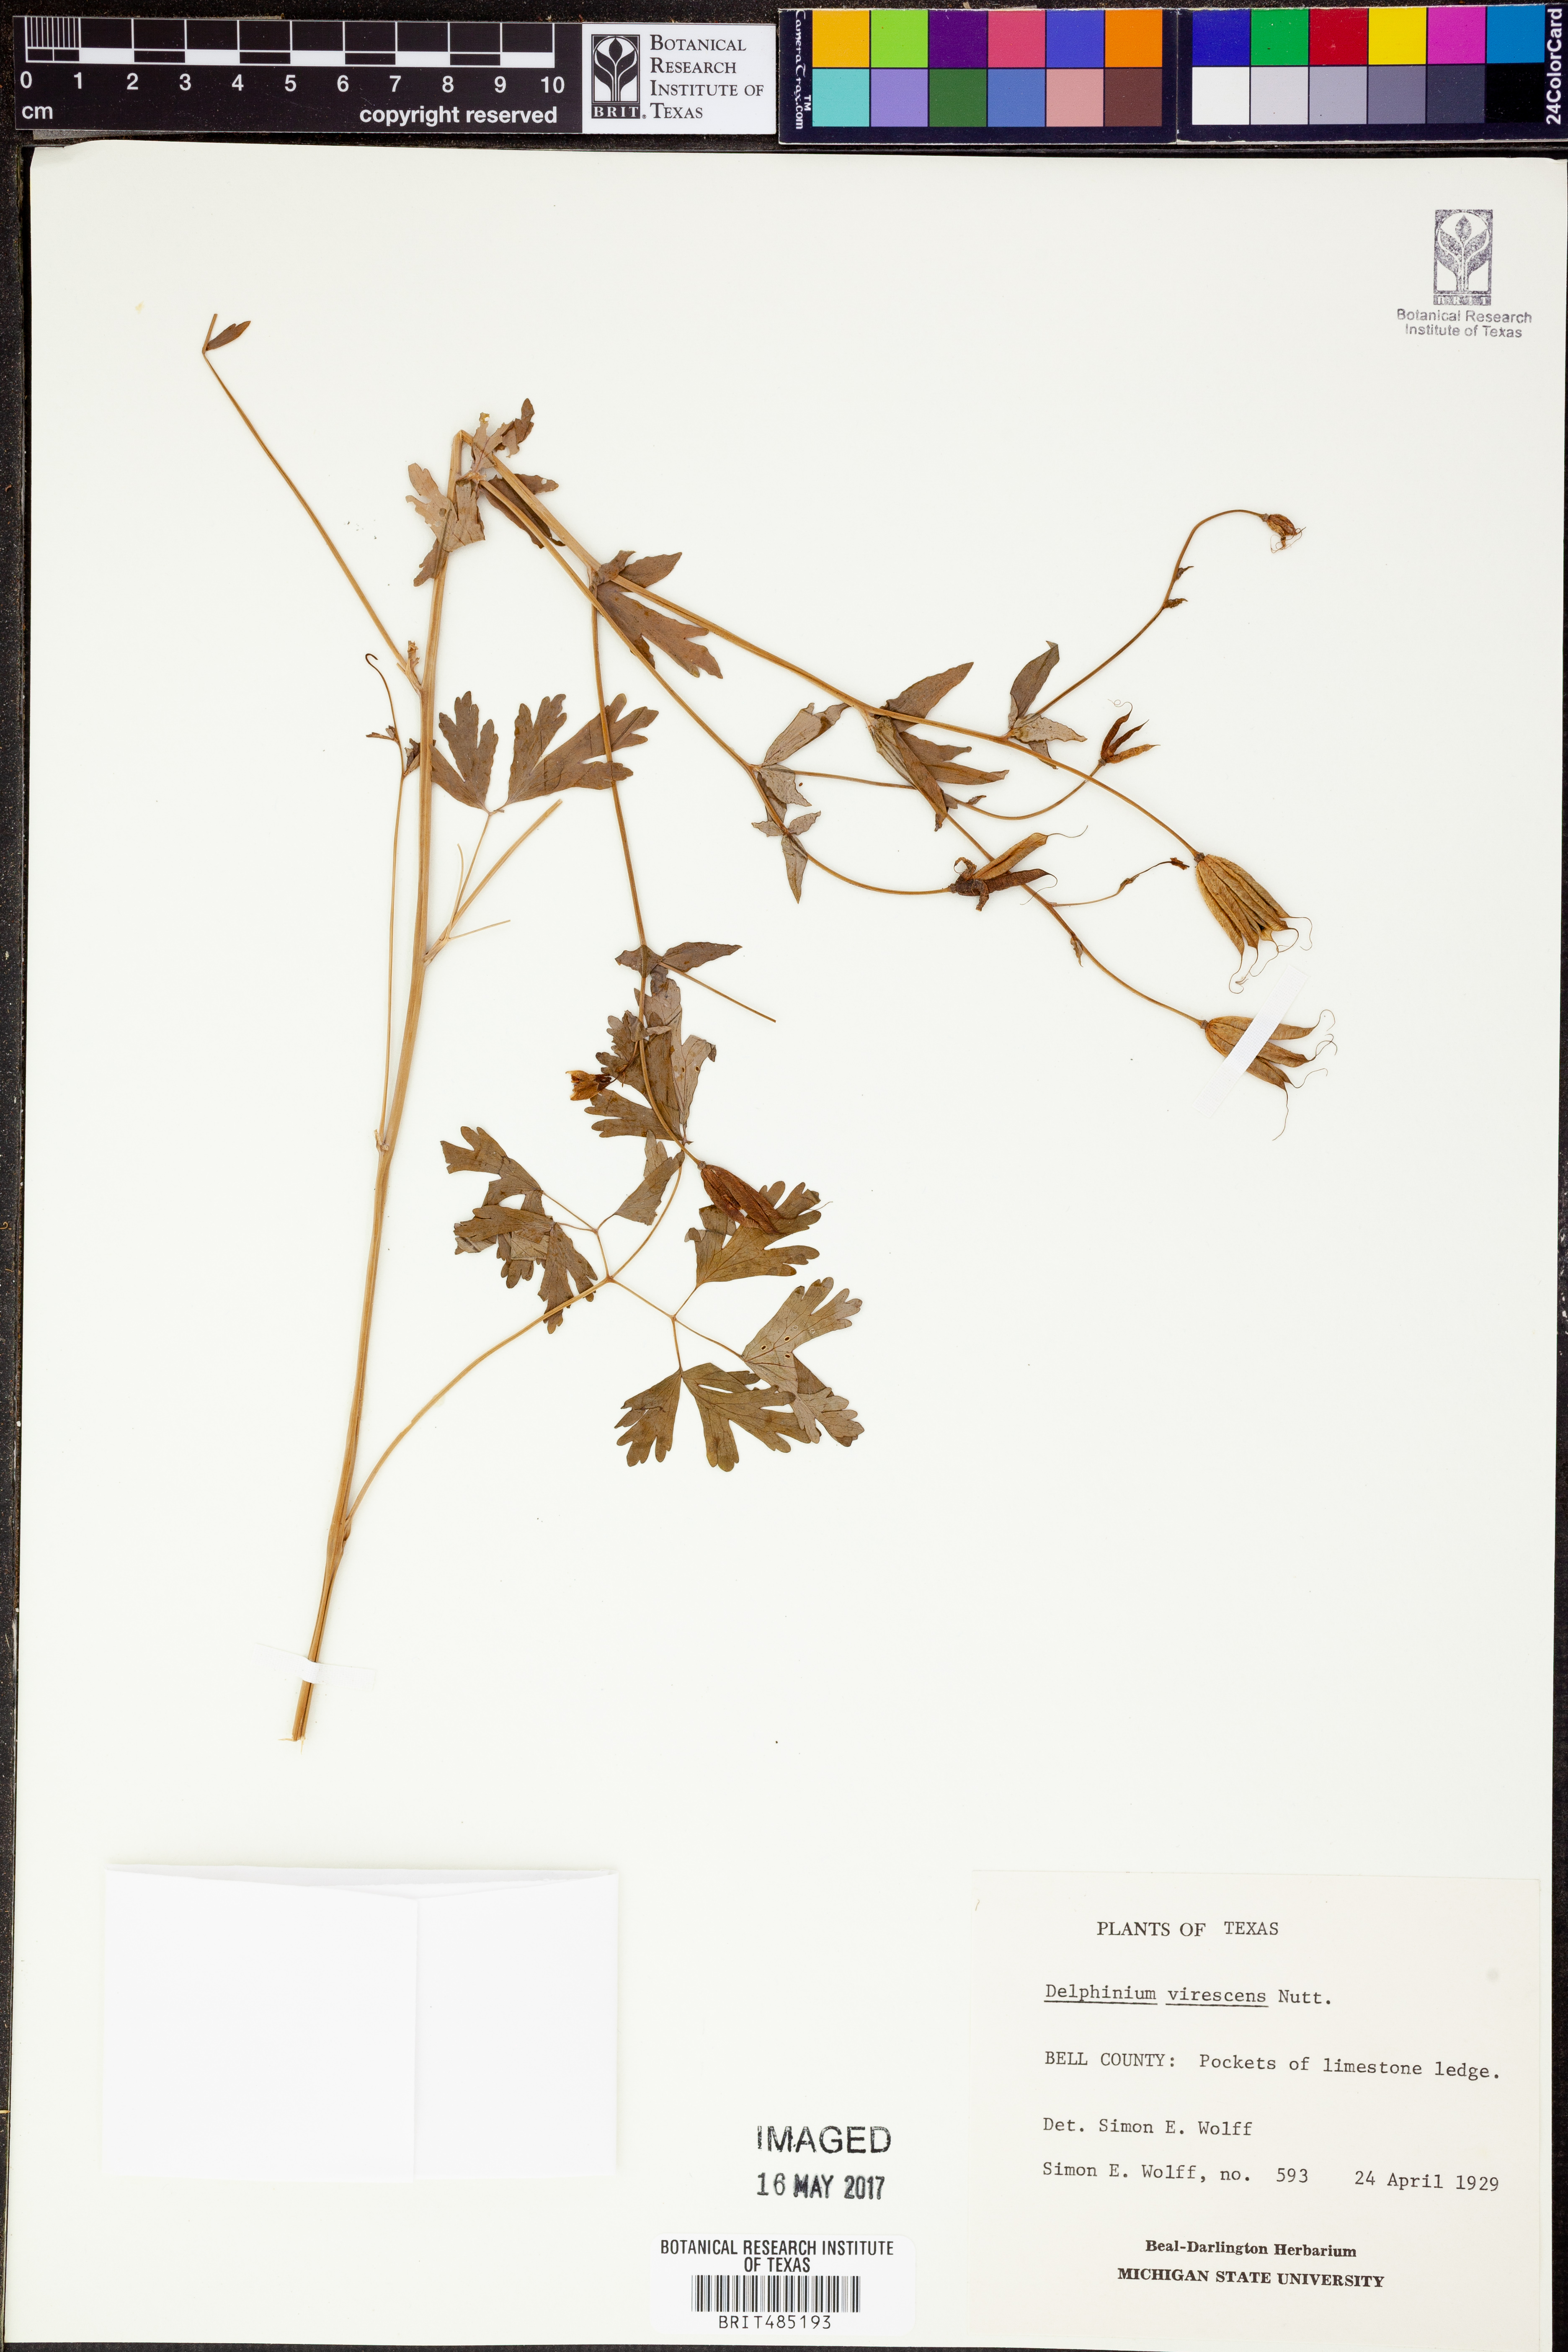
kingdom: Plantae
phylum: Tracheophyta
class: Magnoliopsida
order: Ranunculales
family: Ranunculaceae
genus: Delphinium
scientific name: Delphinium carolinianum
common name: Carolina larkspur
